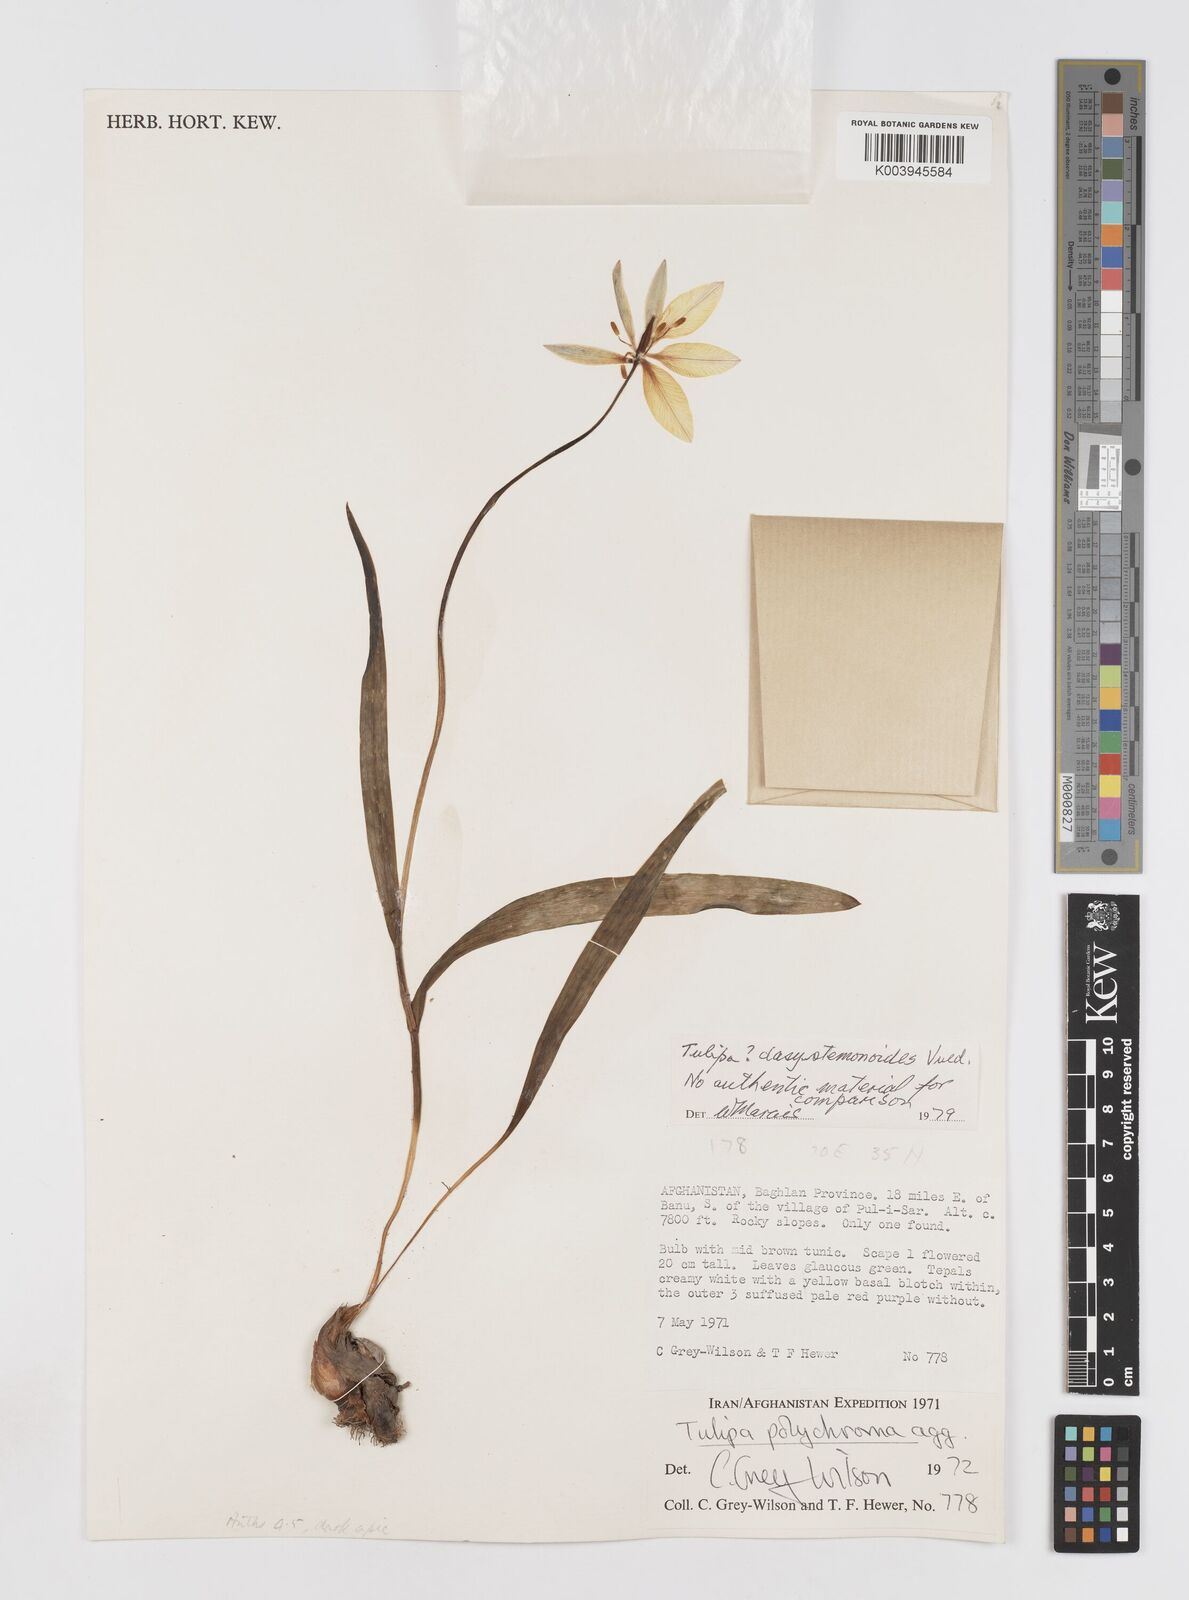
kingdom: Plantae
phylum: Tracheophyta
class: Liliopsida
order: Liliales
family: Liliaceae
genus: Tulipa
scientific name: Tulipa dasystemon
